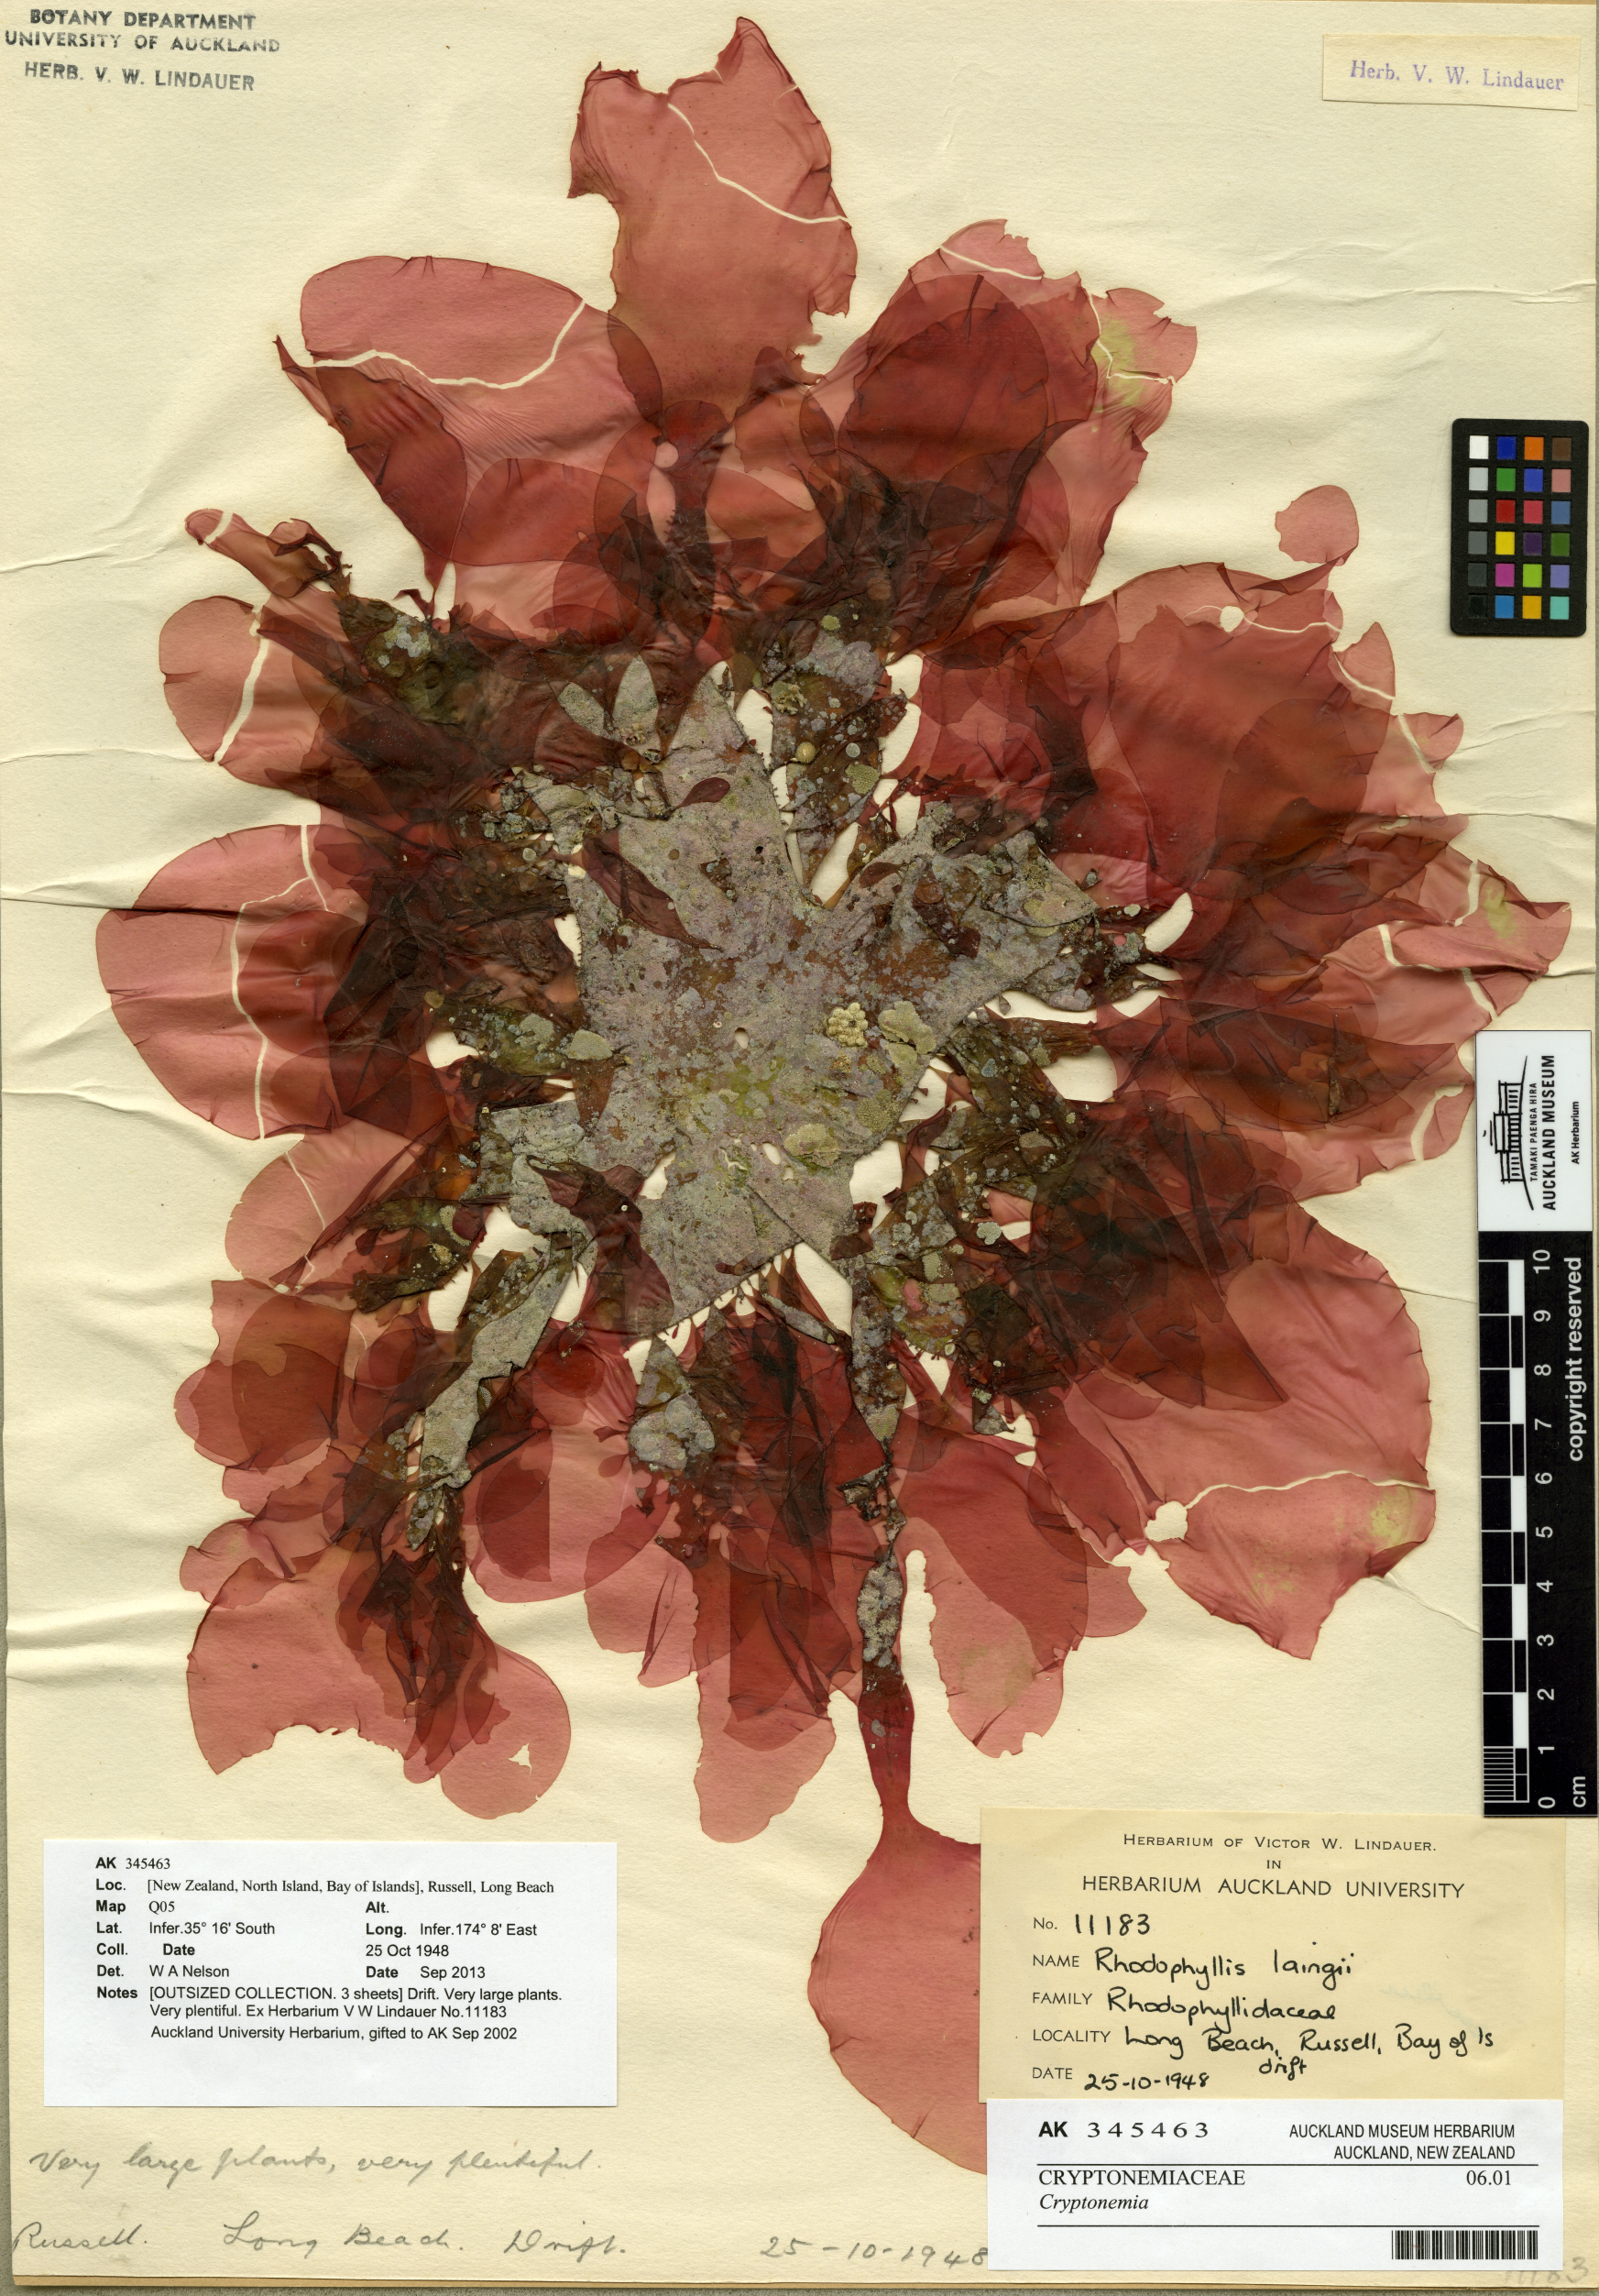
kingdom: Plantae
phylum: Rhodophyta
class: Florideophyceae
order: Halymeniales
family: Halymeniaceae
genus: Cryptonemia
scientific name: Cryptonemia
